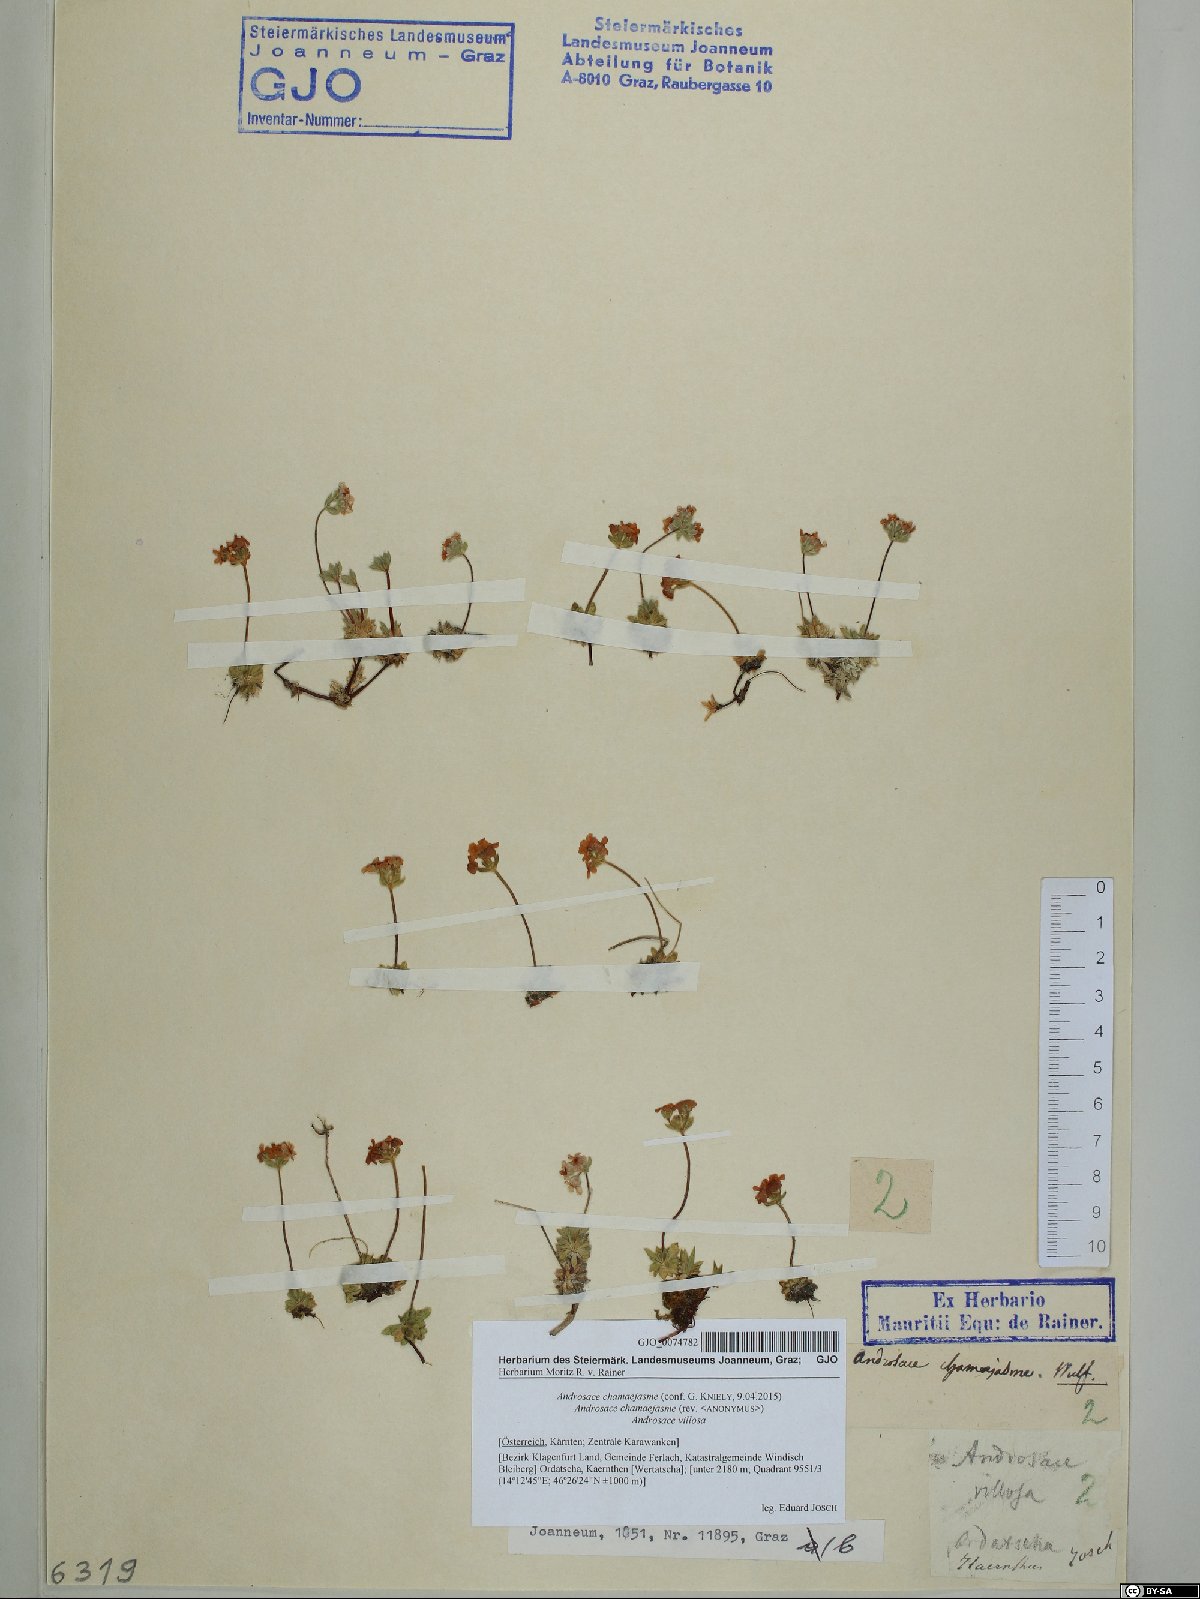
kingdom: Plantae
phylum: Tracheophyta
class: Magnoliopsida
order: Ericales
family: Primulaceae
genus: Androsace
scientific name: Androsace chamaejasme
